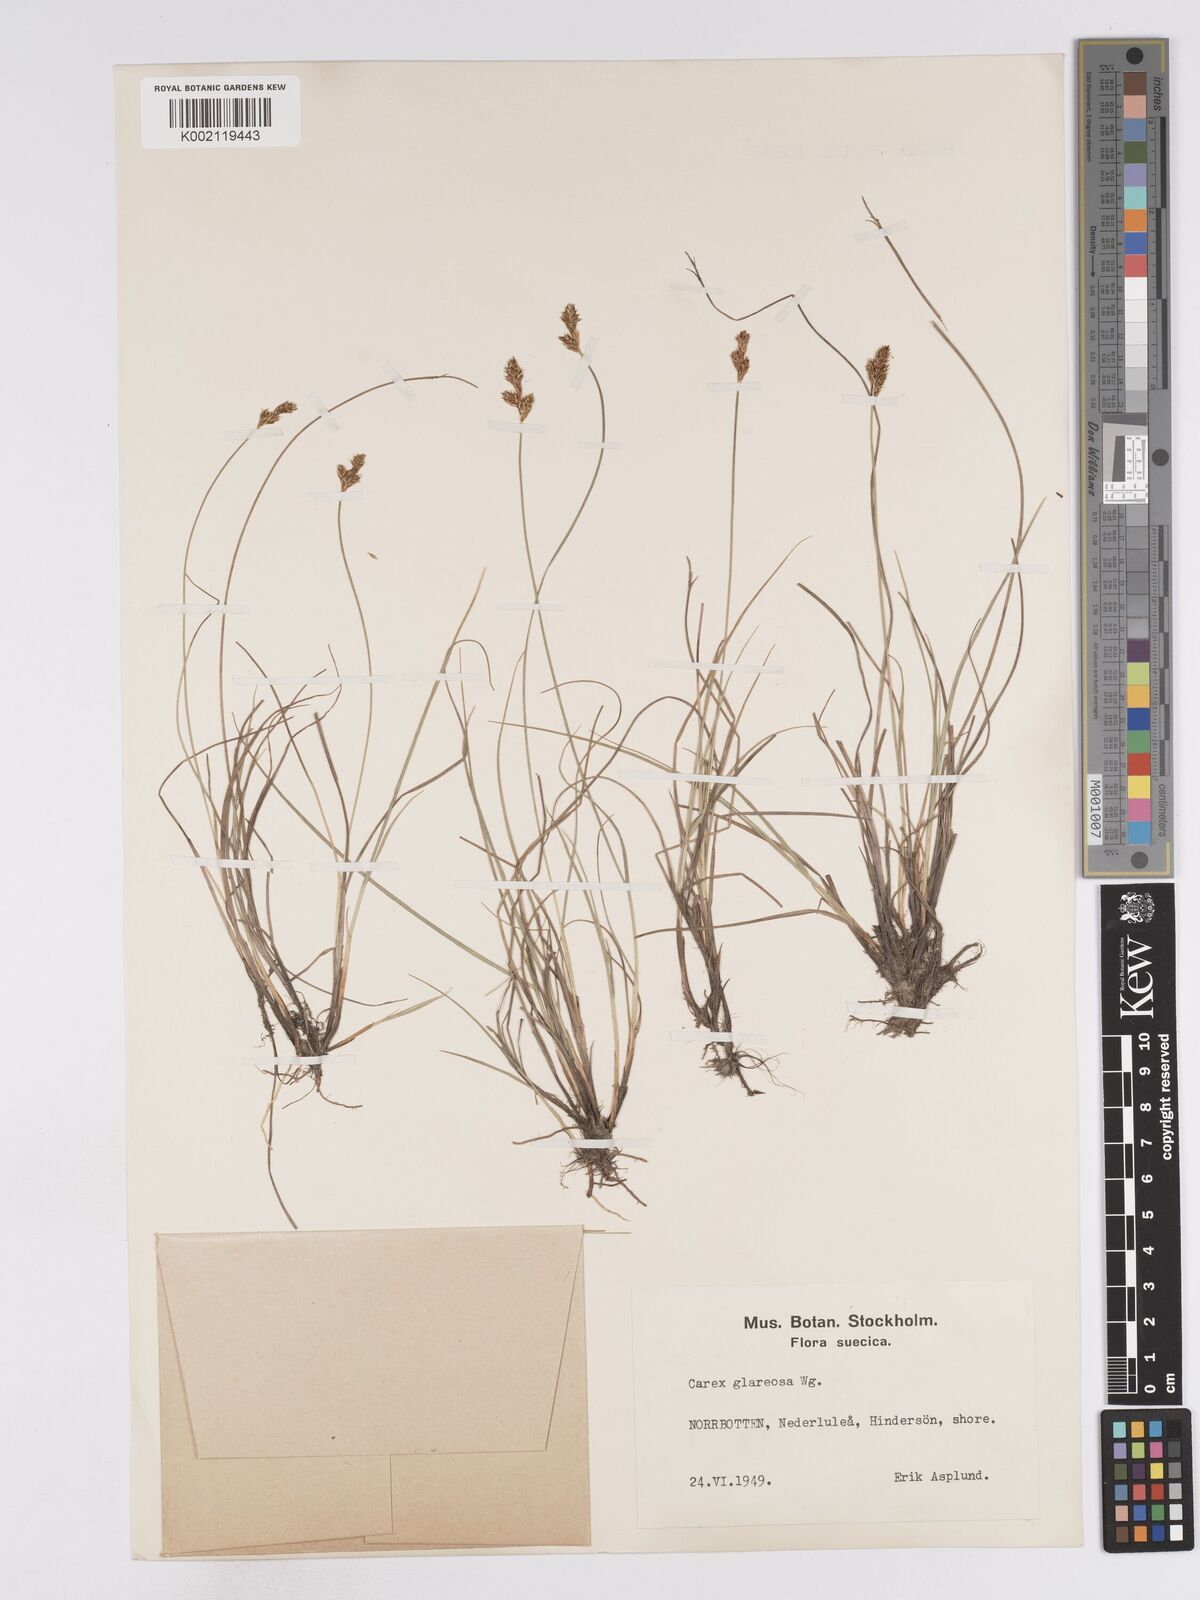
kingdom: Plantae
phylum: Tracheophyta
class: Liliopsida
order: Poales
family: Cyperaceae
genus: Carex
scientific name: Carex glareosa
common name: Clustered sedge
